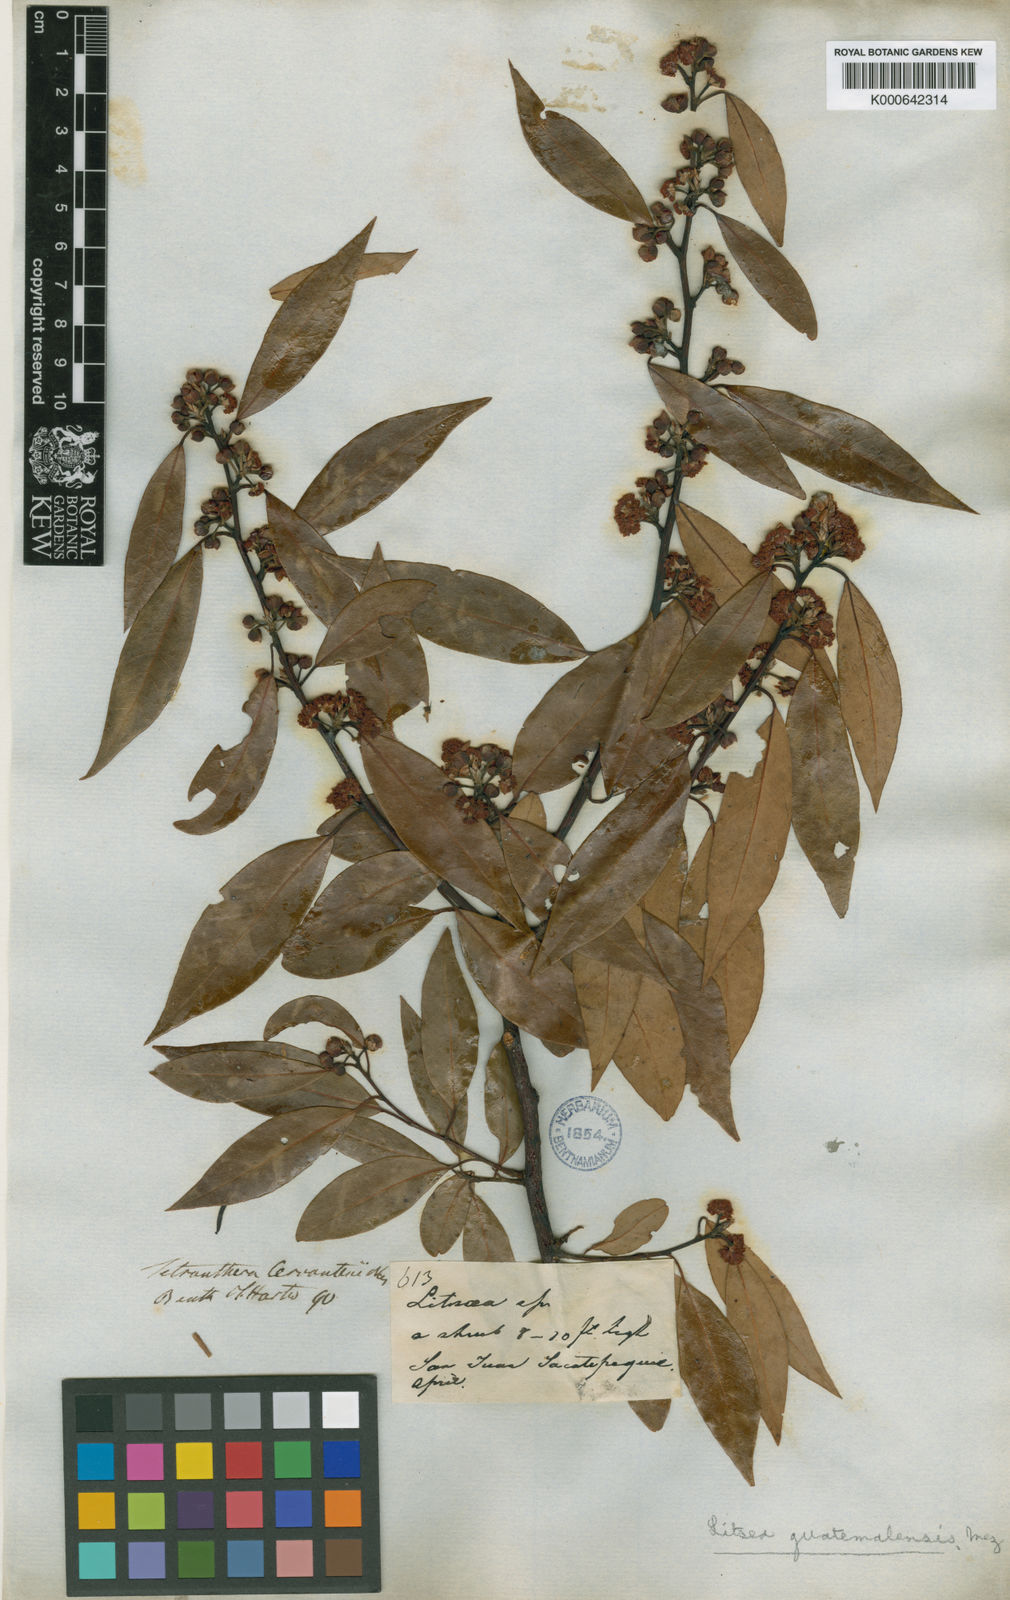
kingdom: Plantae
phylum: Tracheophyta
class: Magnoliopsida
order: Laurales
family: Lauraceae
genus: Licaria
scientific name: Licaria triandra
